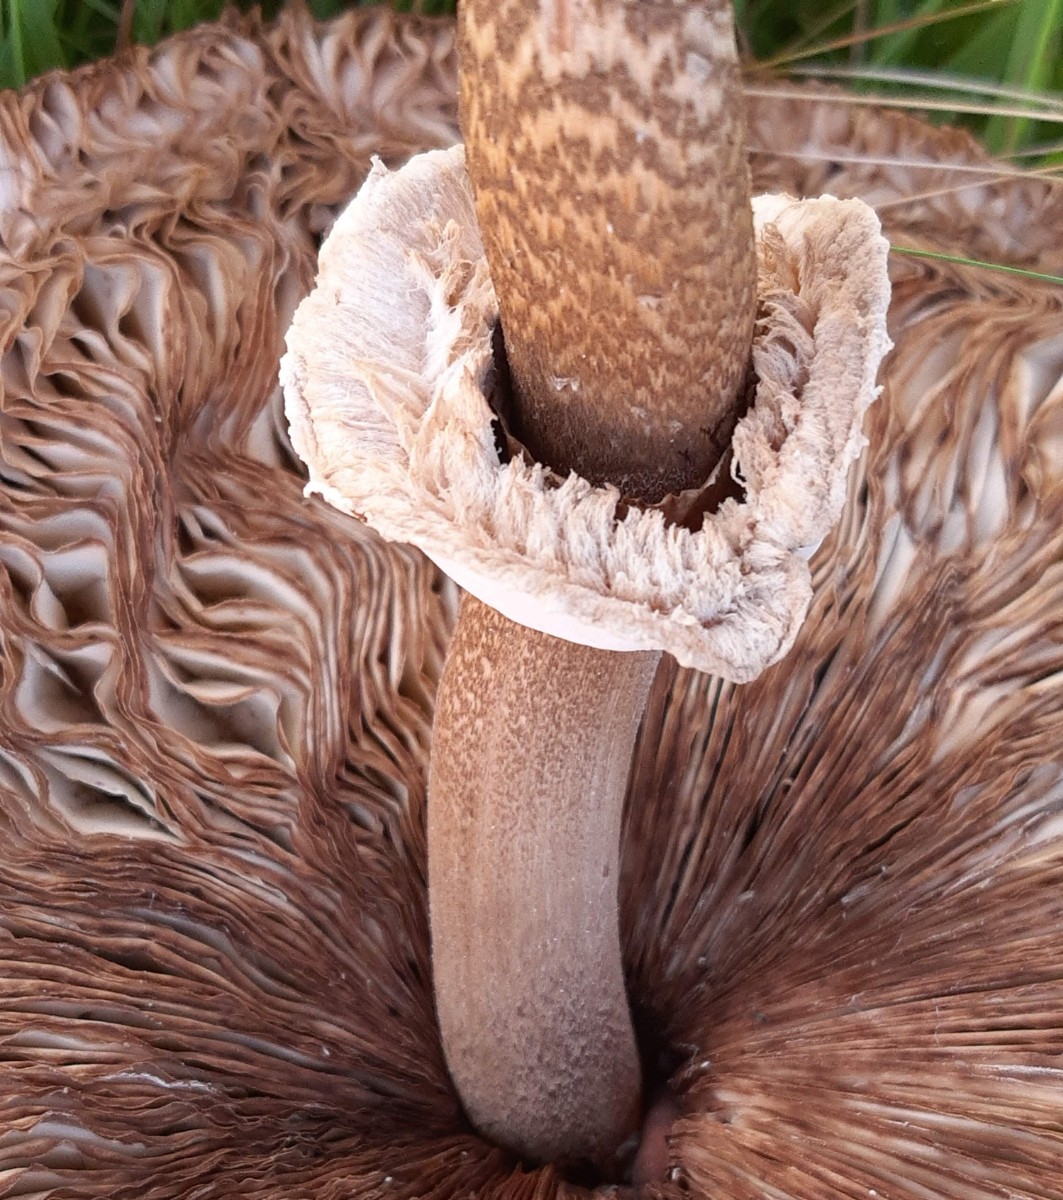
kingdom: Fungi
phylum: Basidiomycota
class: Agaricomycetes
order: Agaricales
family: Agaricaceae
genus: Macrolepiota
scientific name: Macrolepiota procera
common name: stor kæmpeparasolhat
